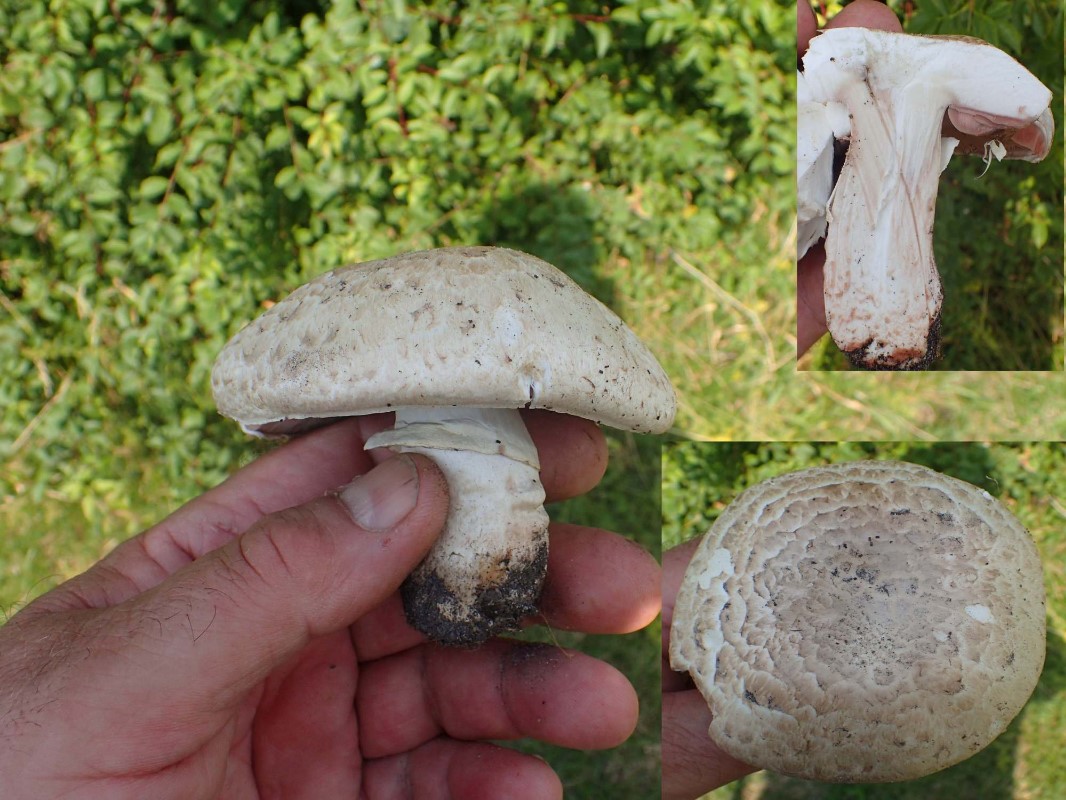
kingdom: Fungi
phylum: Basidiomycota
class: Agaricomycetes
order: Agaricales
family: Agaricaceae
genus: Agaricus
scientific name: Agaricus subfloccosus
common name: randskællet champignon
